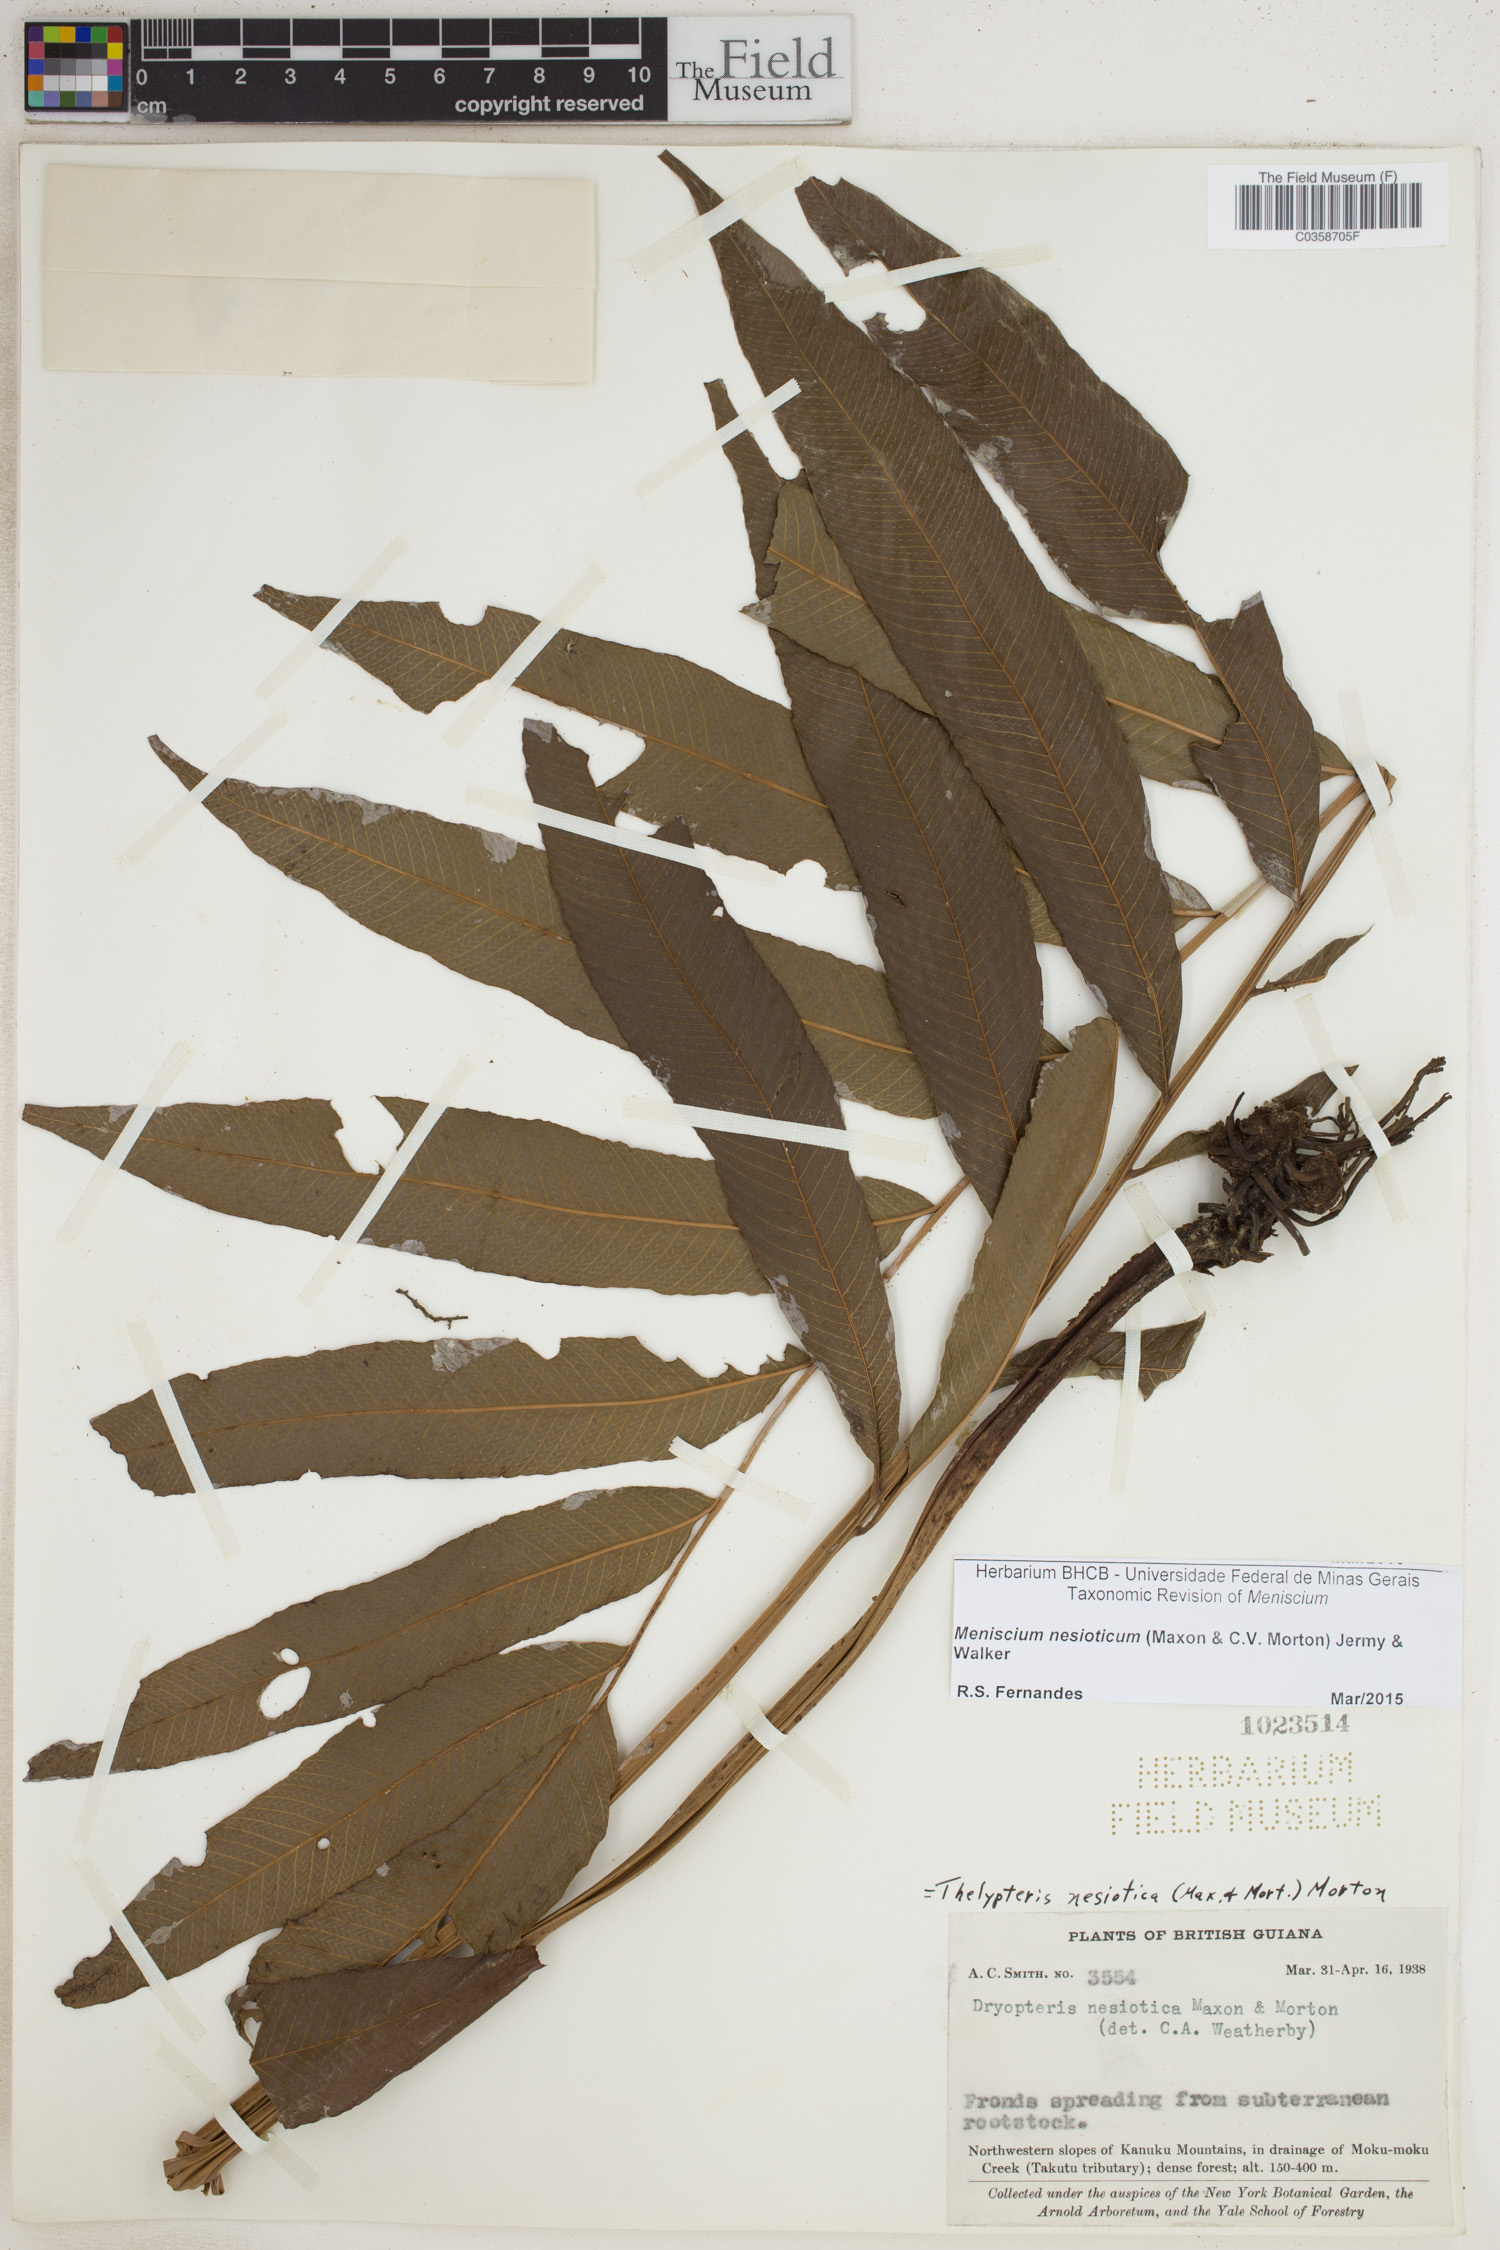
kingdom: Plantae
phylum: Tracheophyta
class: Polypodiopsida
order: Polypodiales
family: Thelypteridaceae
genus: Meniscium
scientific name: Meniscium nesioticum
